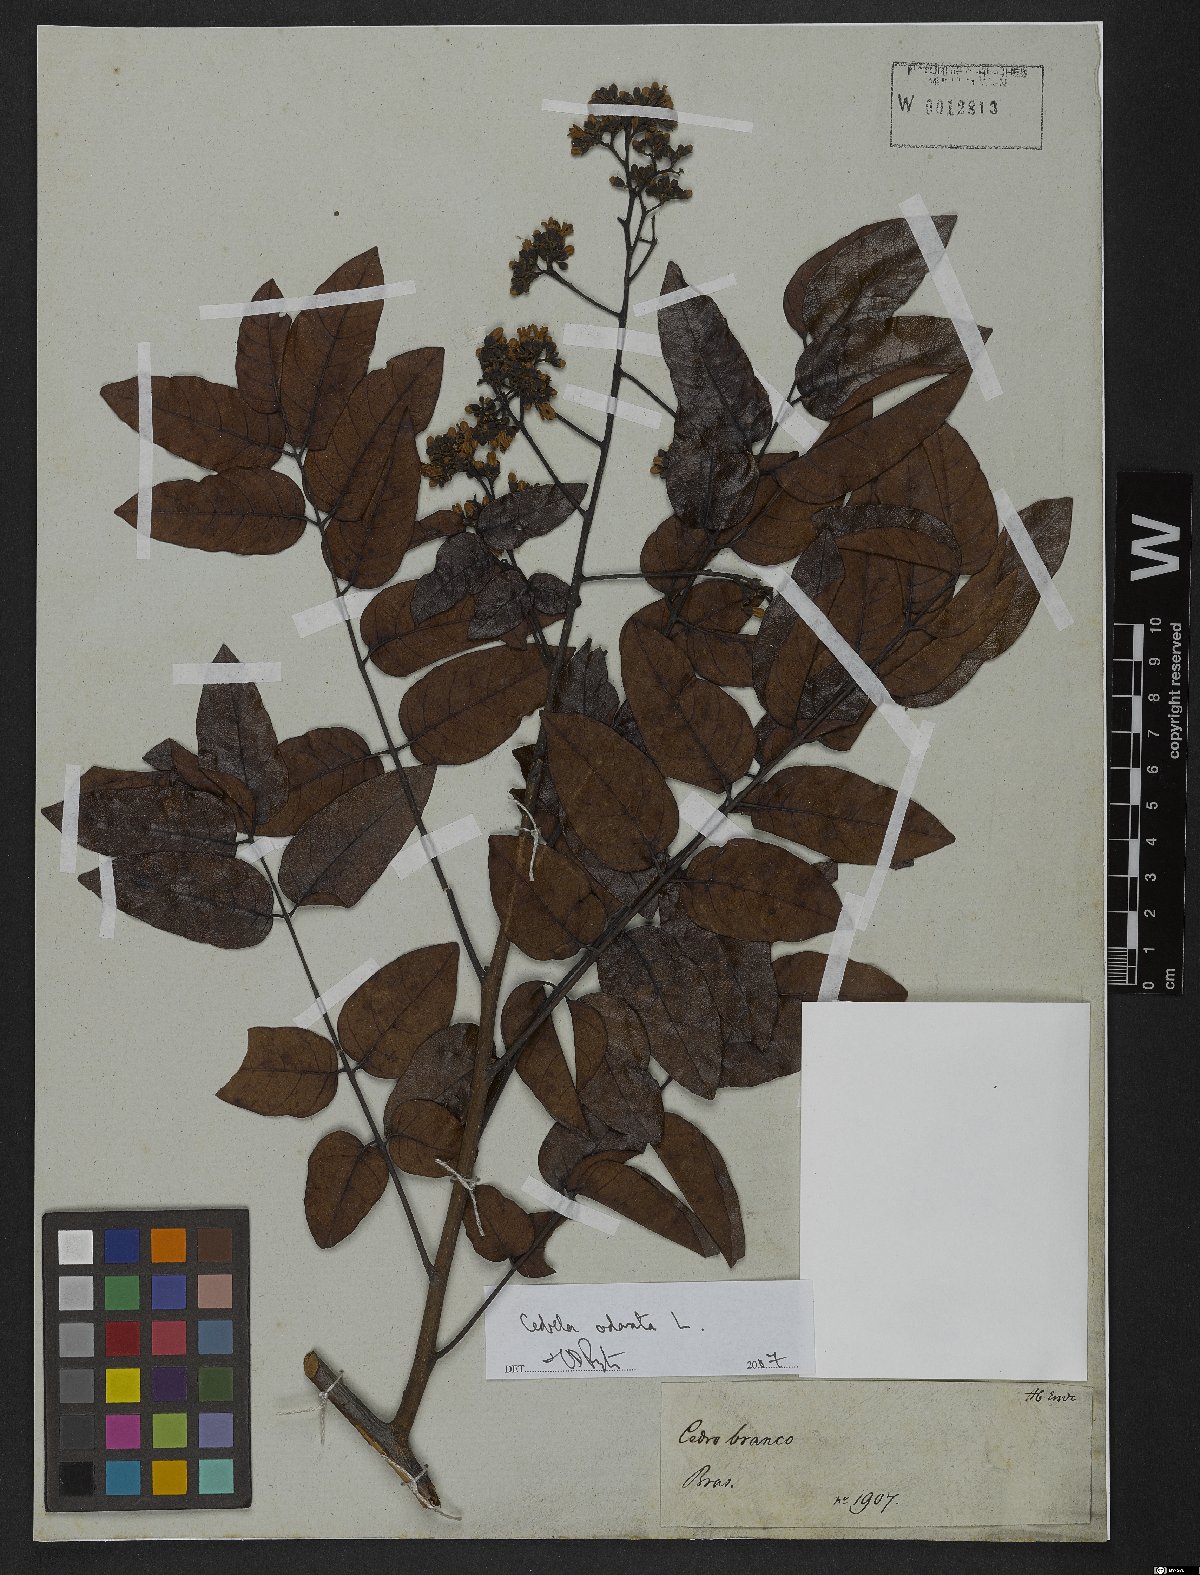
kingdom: Plantae
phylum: Tracheophyta
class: Magnoliopsida
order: Sapindales
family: Meliaceae
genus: Cedrela
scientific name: Cedrela odorata
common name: Red cedar
